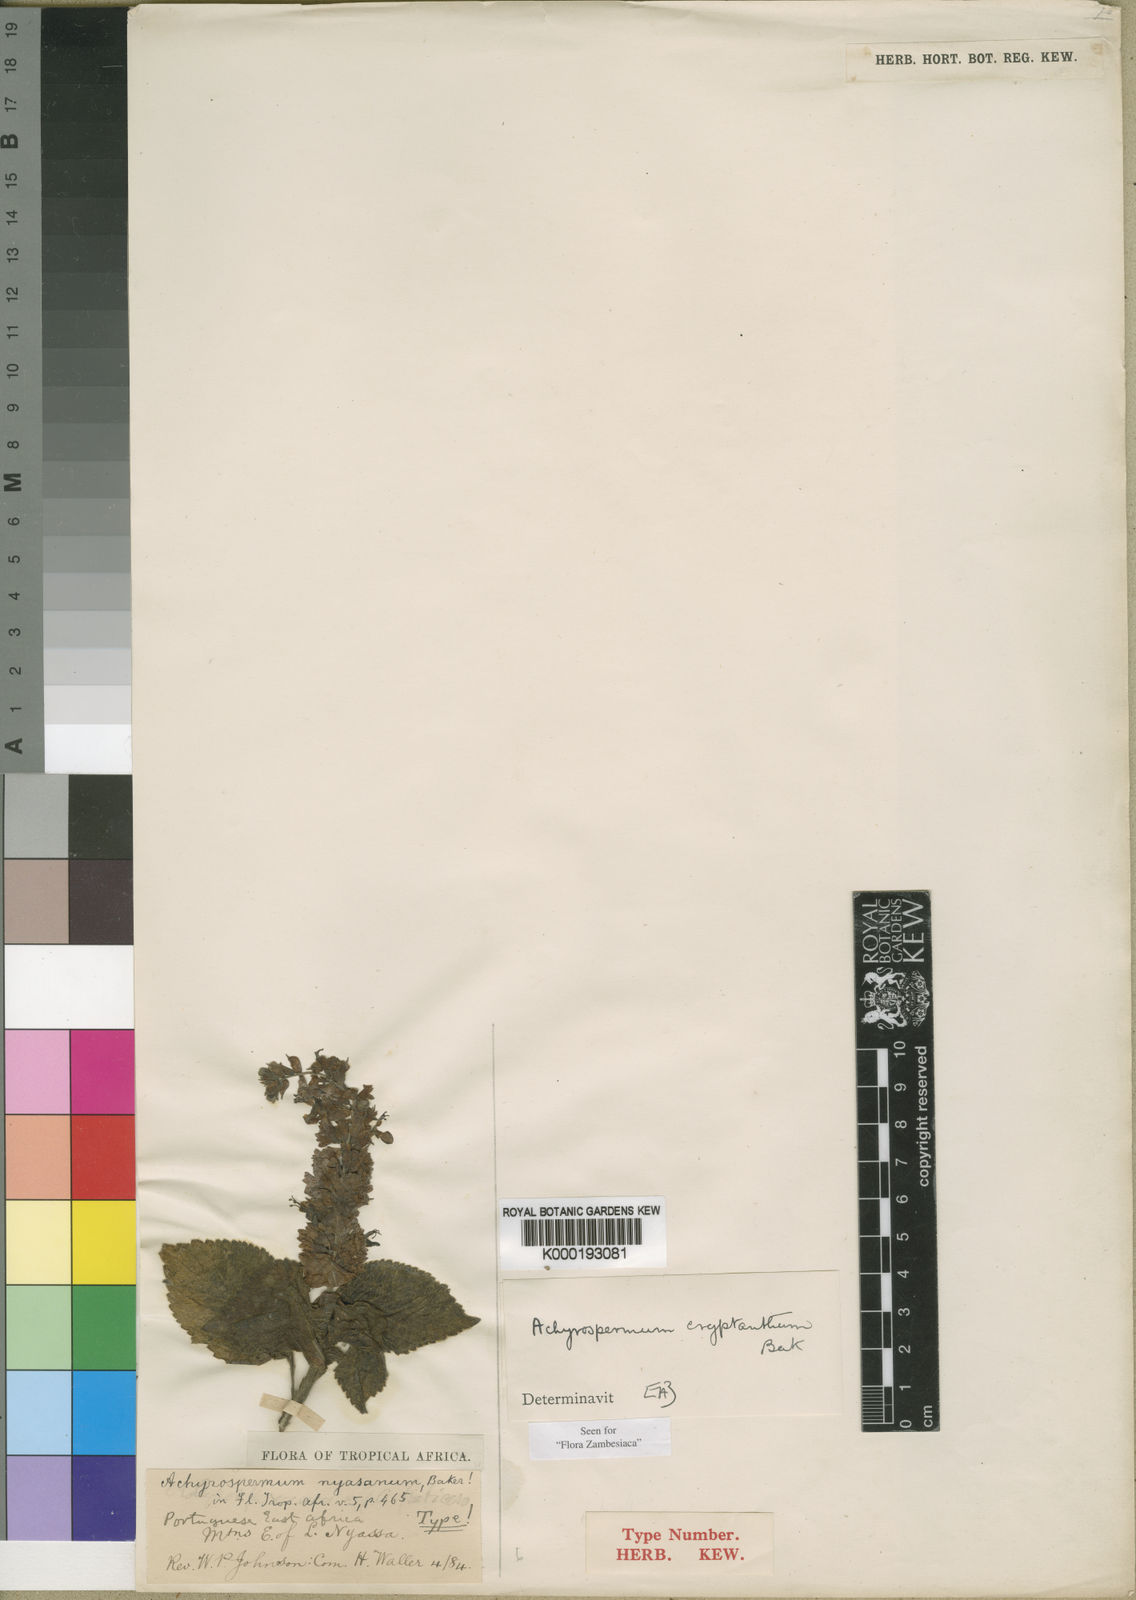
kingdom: Plantae
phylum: Tracheophyta
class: Magnoliopsida
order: Lamiales
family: Lamiaceae
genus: Achyrospermum
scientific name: Achyrospermum cryptanthum
